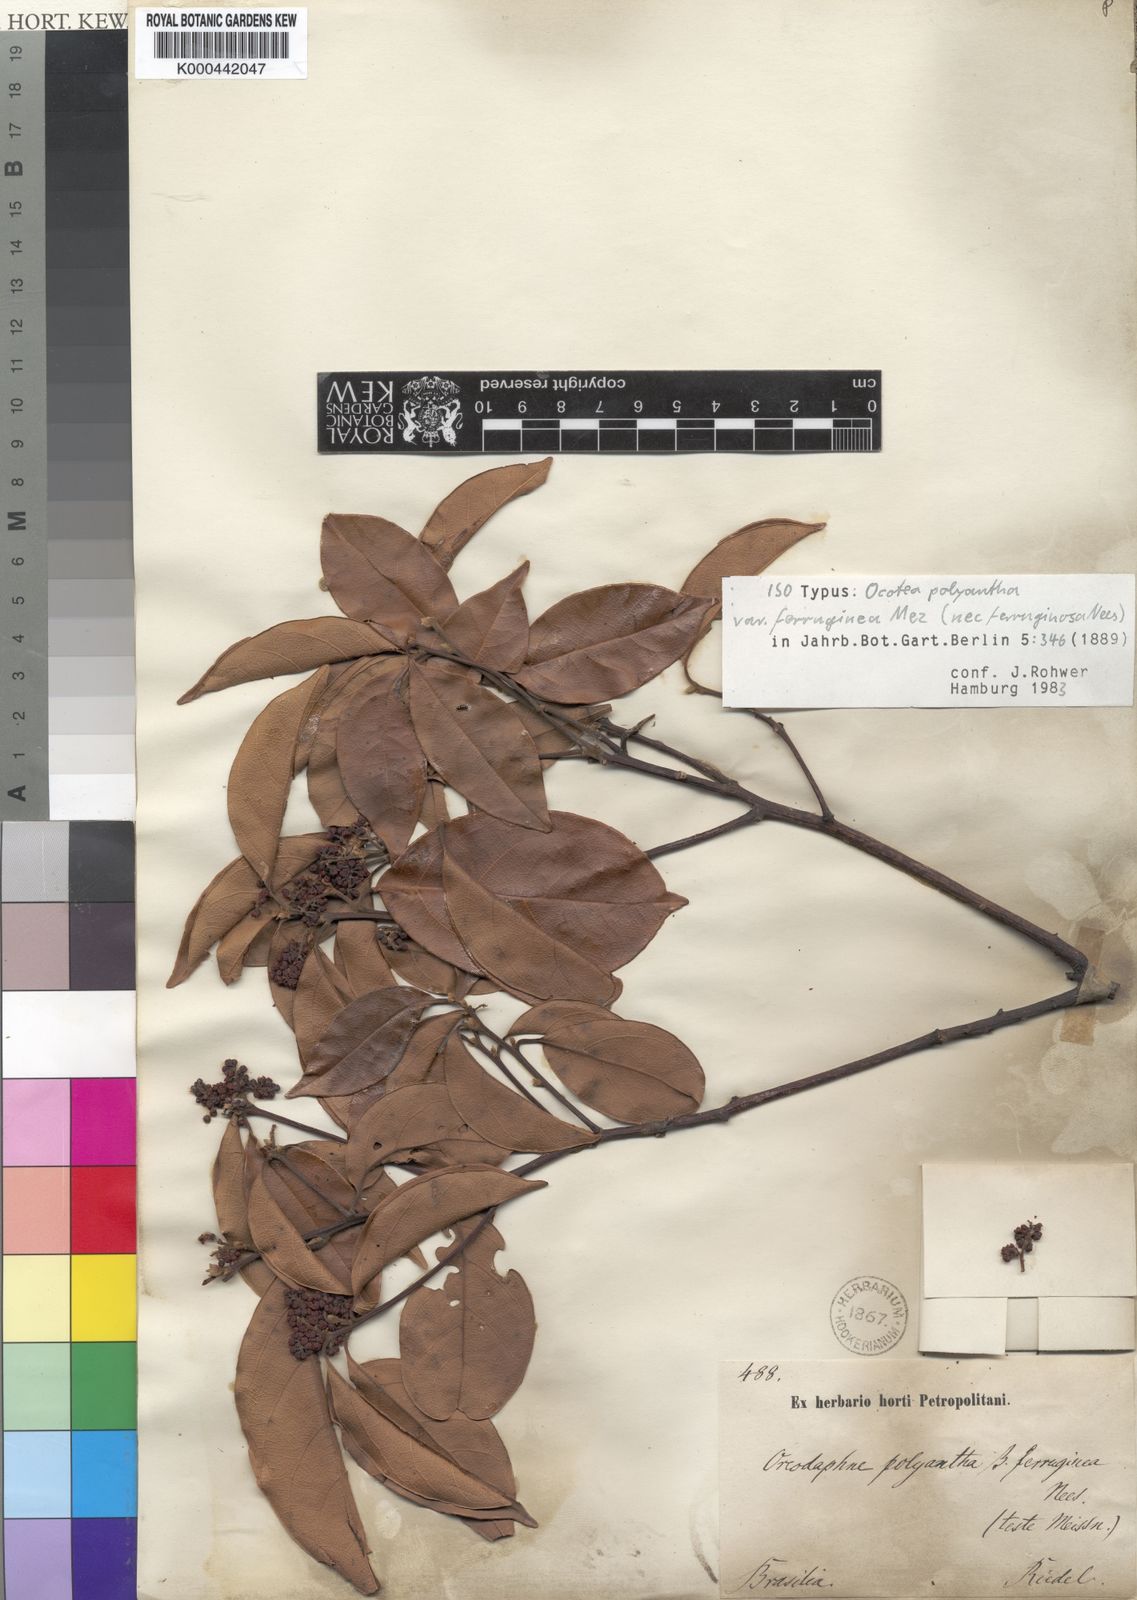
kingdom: Plantae
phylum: Tracheophyta
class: Magnoliopsida
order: Laurales
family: Lauraceae
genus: Ocotea
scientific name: Ocotea polyantha
